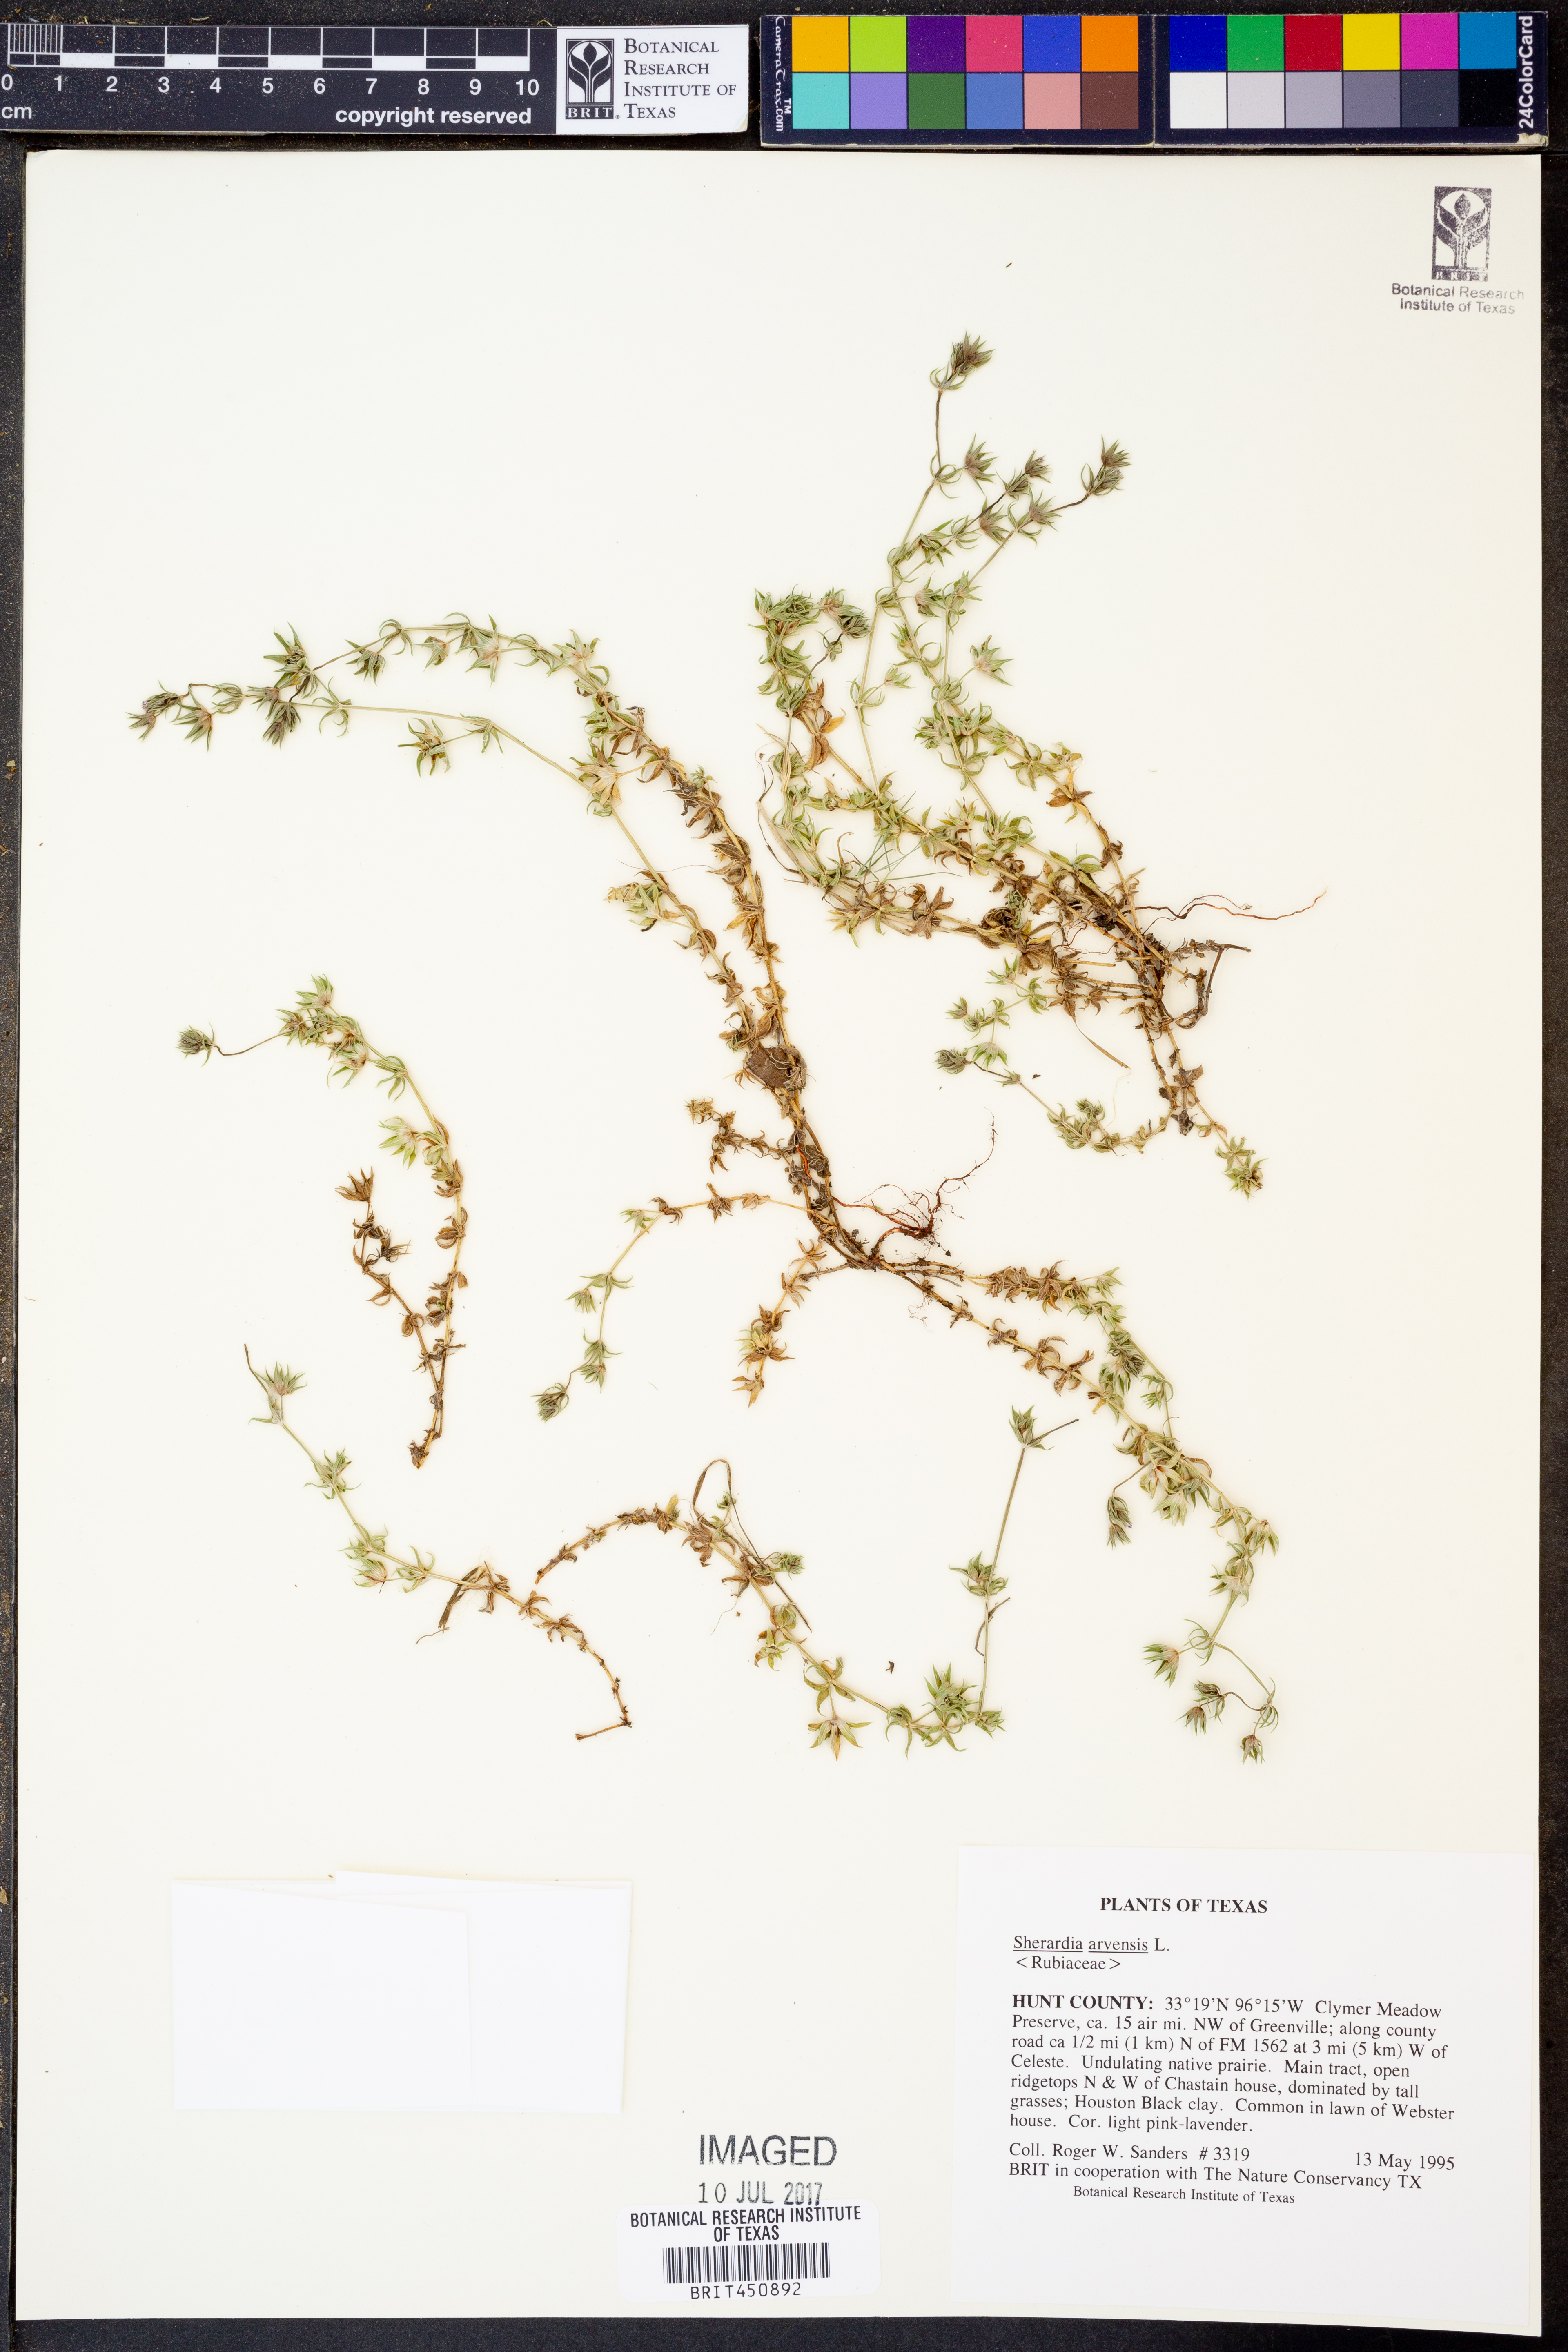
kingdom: Plantae
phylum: Tracheophyta
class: Magnoliopsida
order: Gentianales
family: Rubiaceae
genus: Sherardia
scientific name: Sherardia arvensis
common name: Field madder
